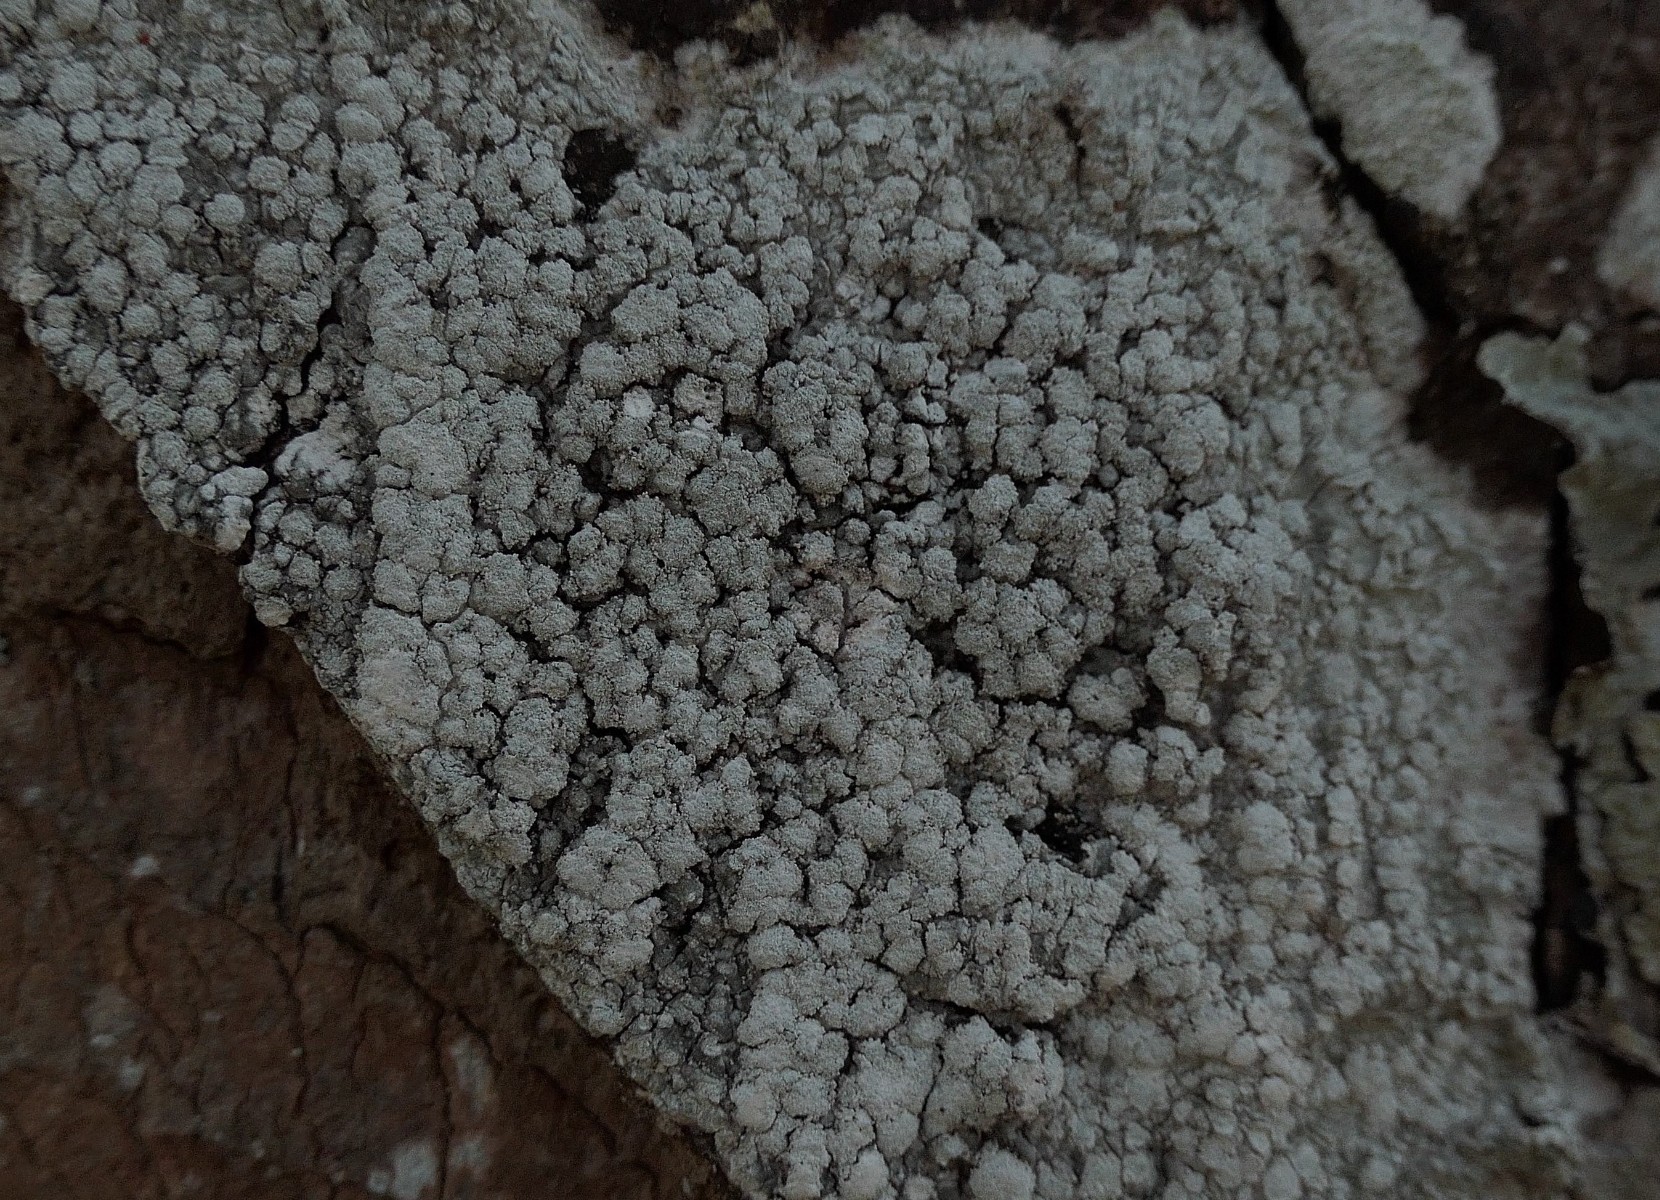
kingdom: Fungi
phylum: Ascomycota
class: Lecanoromycetes
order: Pertusariales
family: Pertusariaceae
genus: Lepra
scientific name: Lepra amara
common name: bitter prikvortelav
